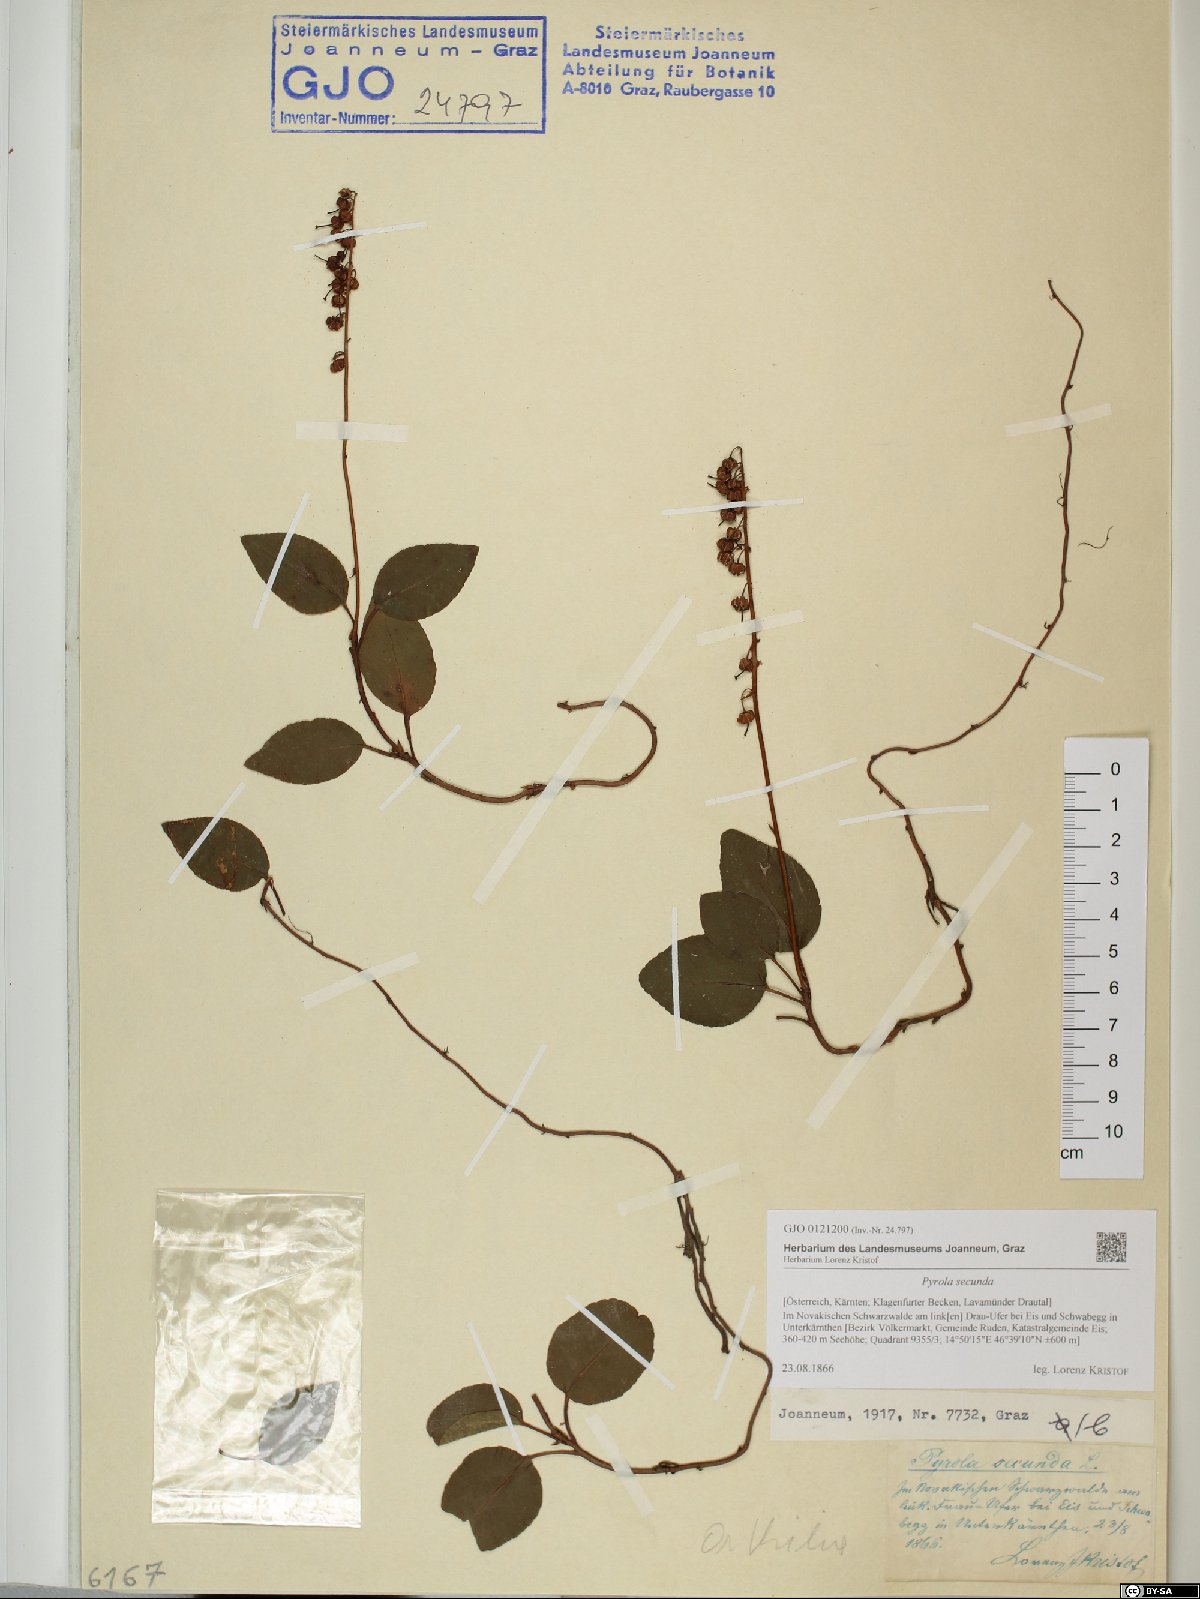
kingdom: Plantae
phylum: Tracheophyta
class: Magnoliopsida
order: Ericales
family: Ericaceae
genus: Orthilia
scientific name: Orthilia secunda
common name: One-sided orthilia
